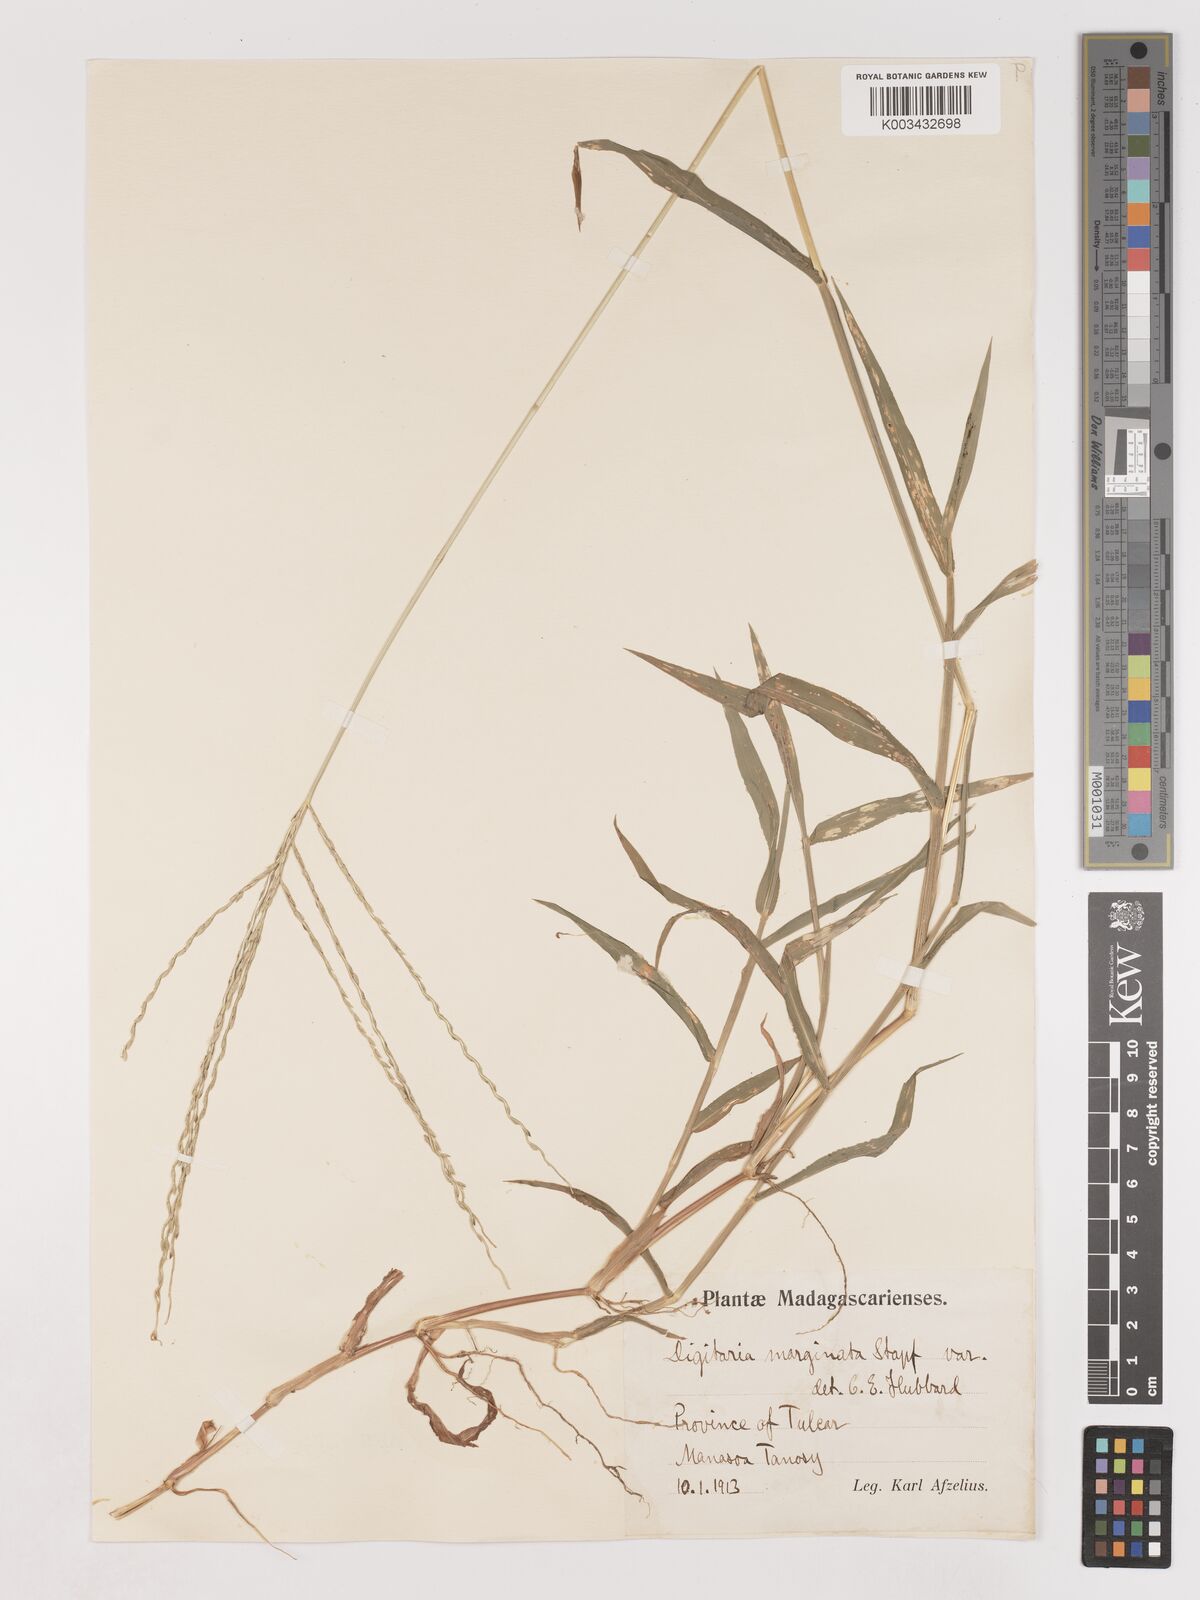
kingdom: Plantae
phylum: Tracheophyta
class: Liliopsida
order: Poales
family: Poaceae
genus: Digitaria
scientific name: Digitaria bicornis
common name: Asian crabgrass
